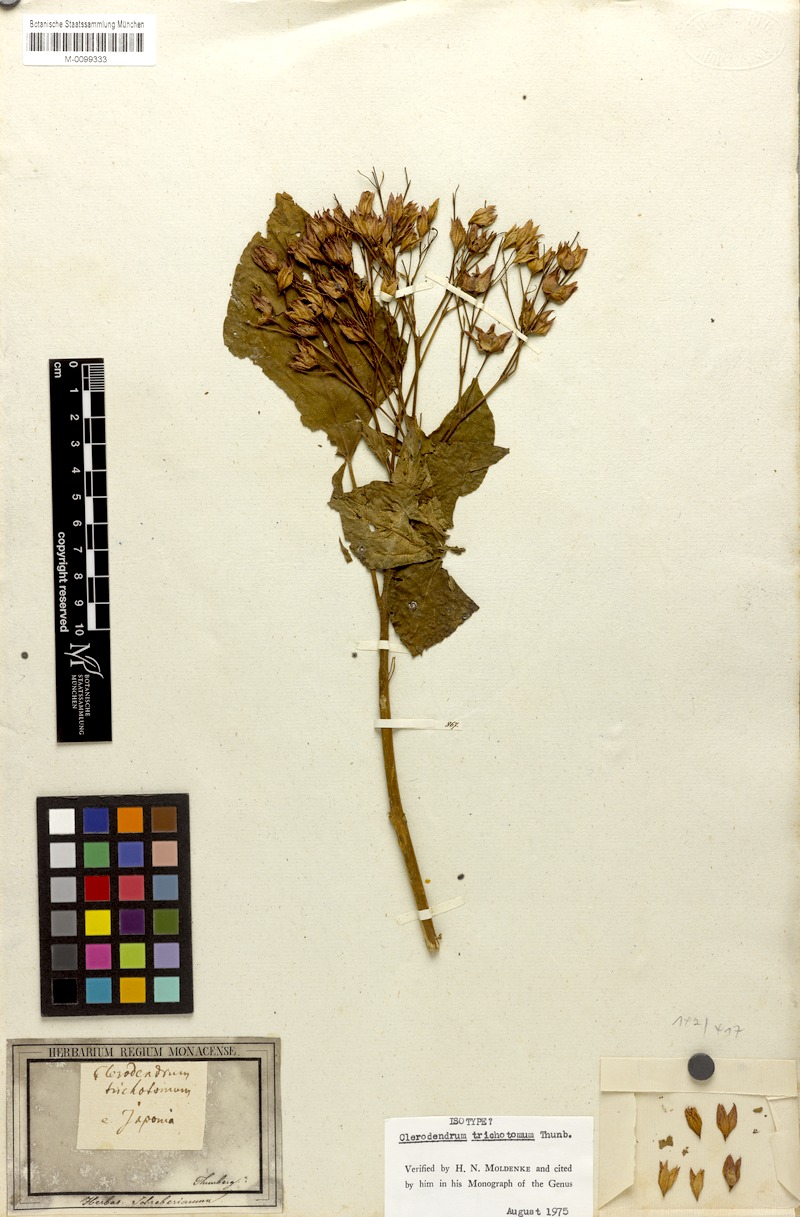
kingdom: Plantae
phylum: Tracheophyta
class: Magnoliopsida
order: Lamiales
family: Lamiaceae
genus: Clerodendrum
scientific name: Clerodendrum trichotomum
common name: Harlequin glorybower
